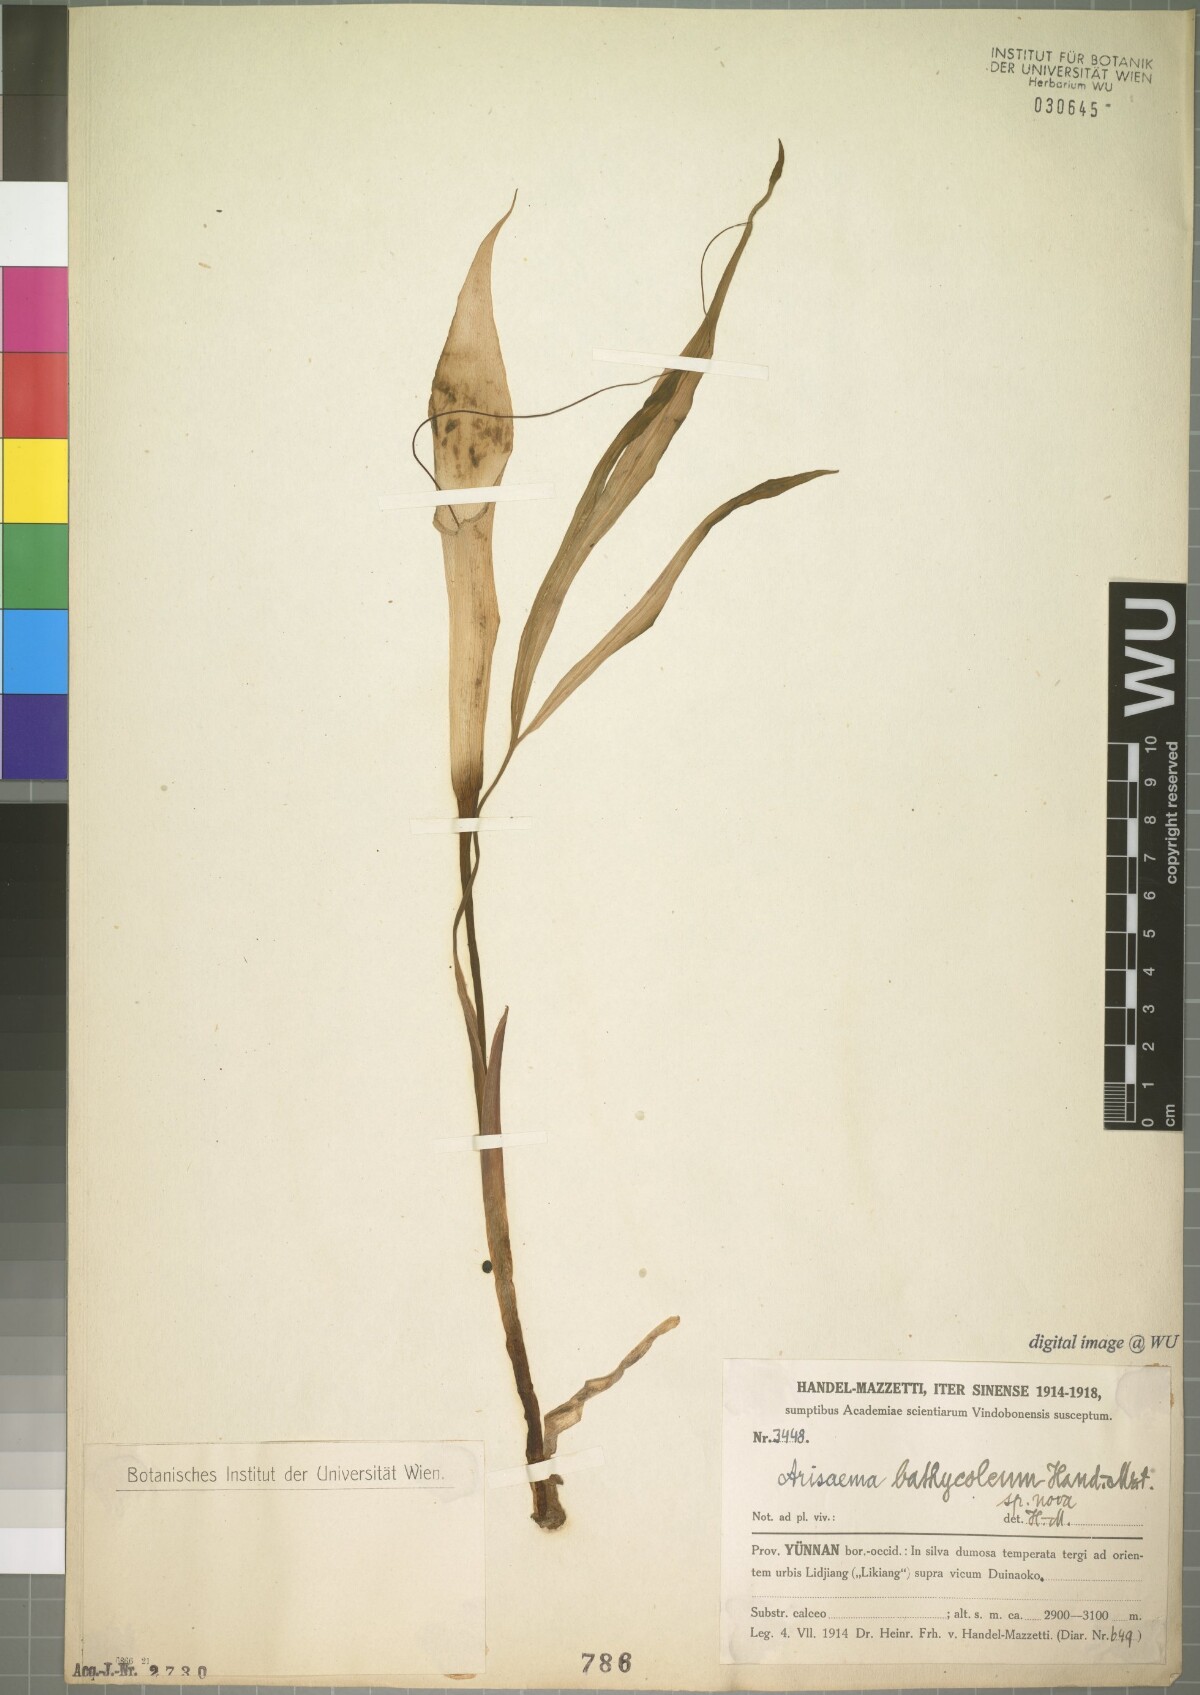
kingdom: Plantae
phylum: Tracheophyta
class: Liliopsida
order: Alismatales
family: Araceae
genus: Arisaema
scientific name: Arisaema bathycoleum
